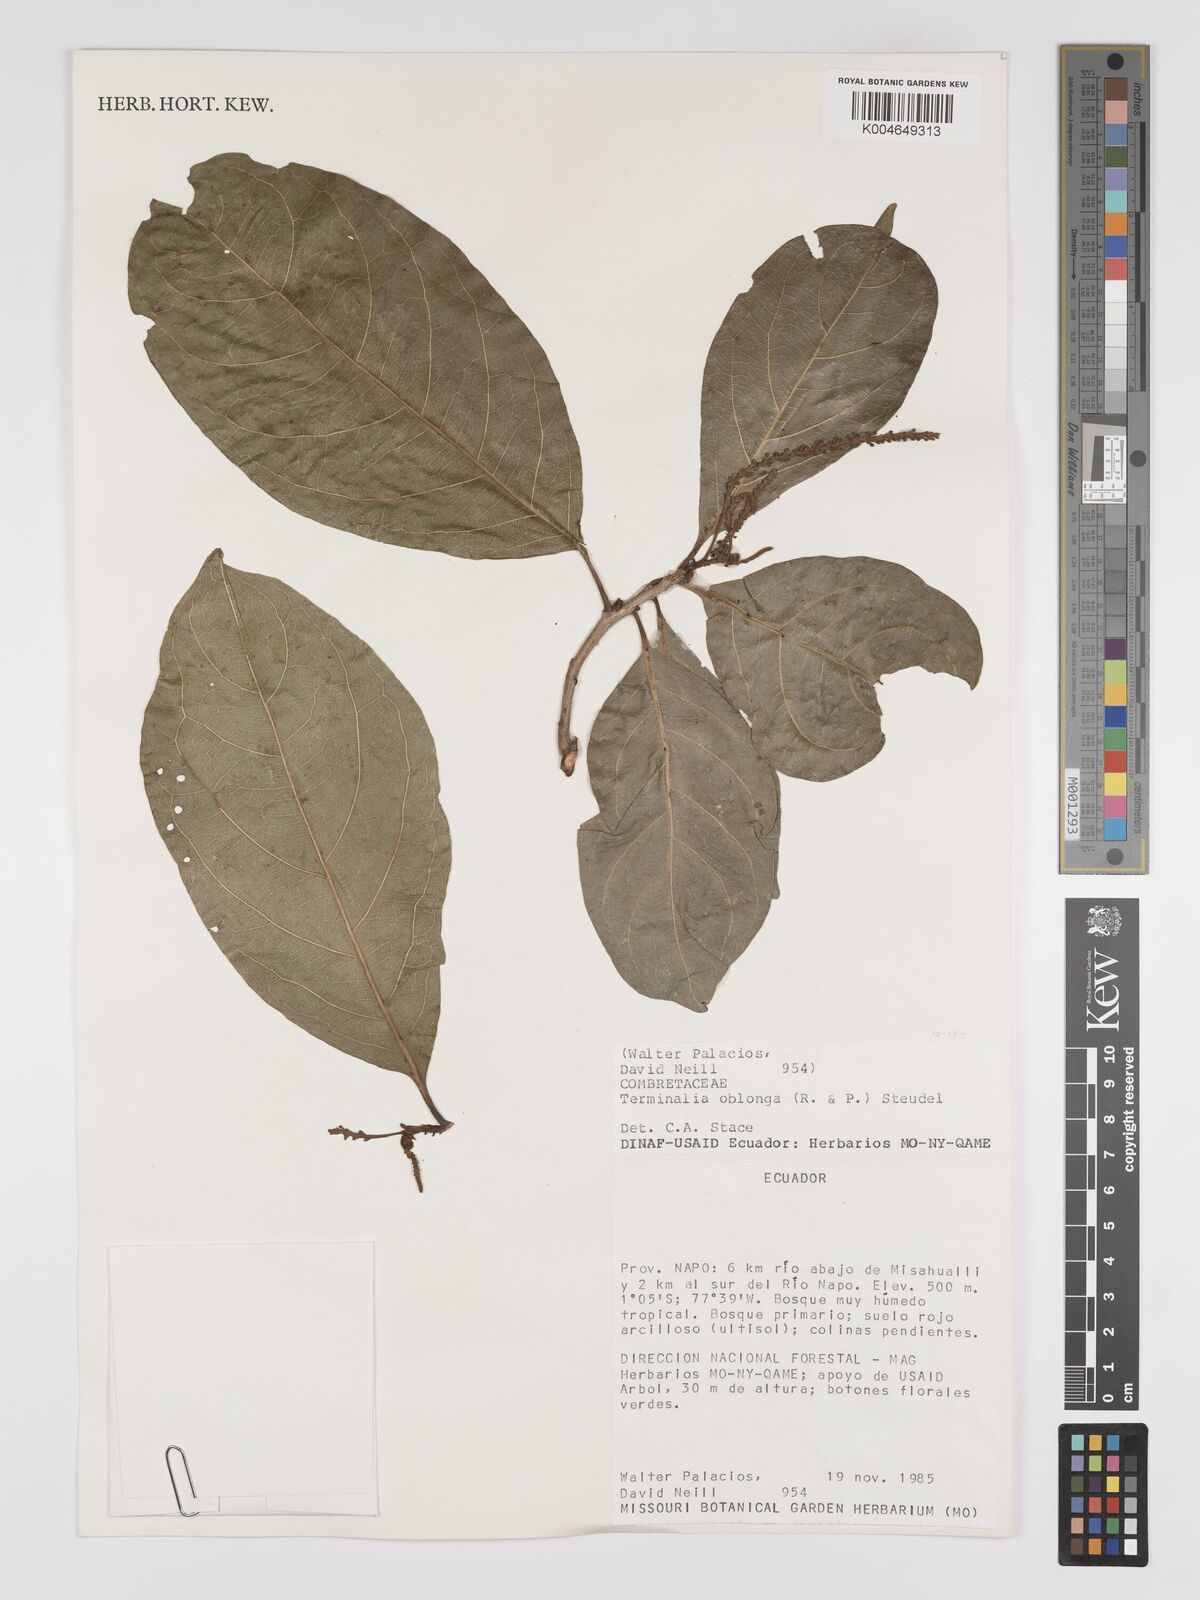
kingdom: Plantae
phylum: Tracheophyta
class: Magnoliopsida
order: Myrtales
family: Combretaceae
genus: Terminalia
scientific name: Terminalia oblonga
